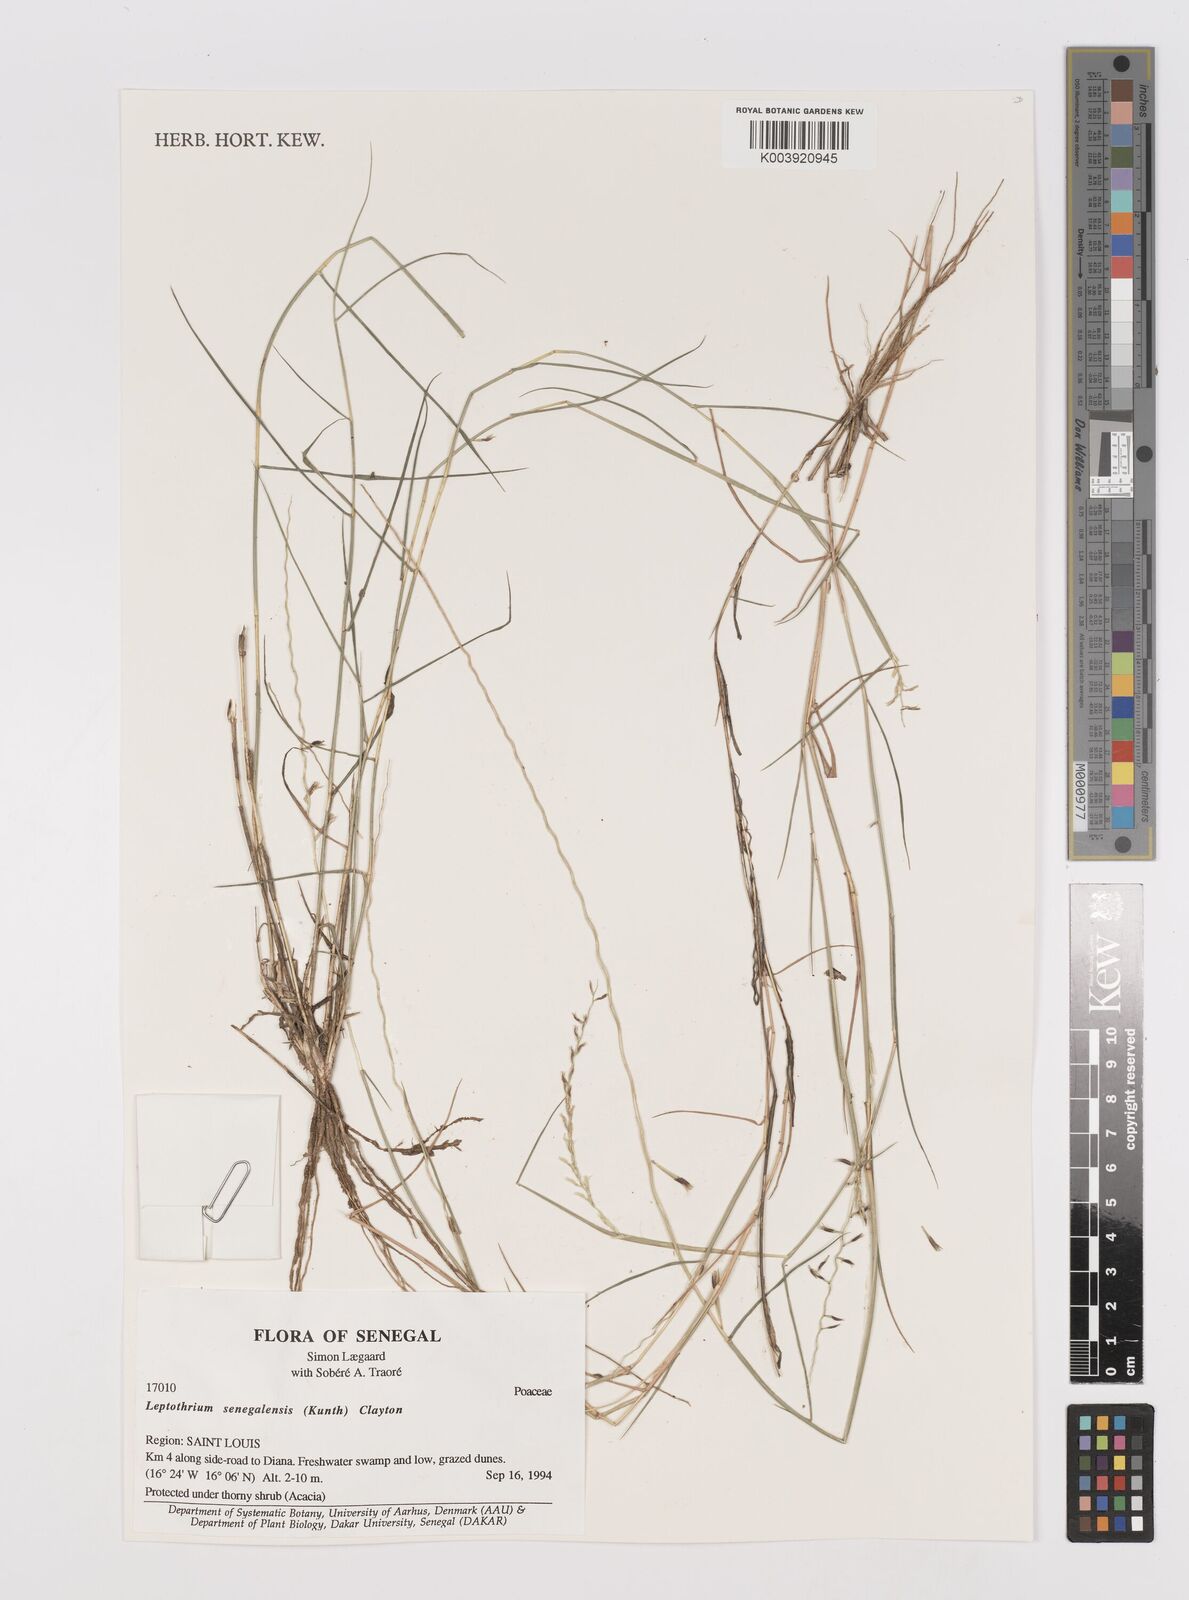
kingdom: Plantae
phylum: Tracheophyta
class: Liliopsida
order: Poales
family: Poaceae
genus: Leptothrium
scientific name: Leptothrium senegalense
